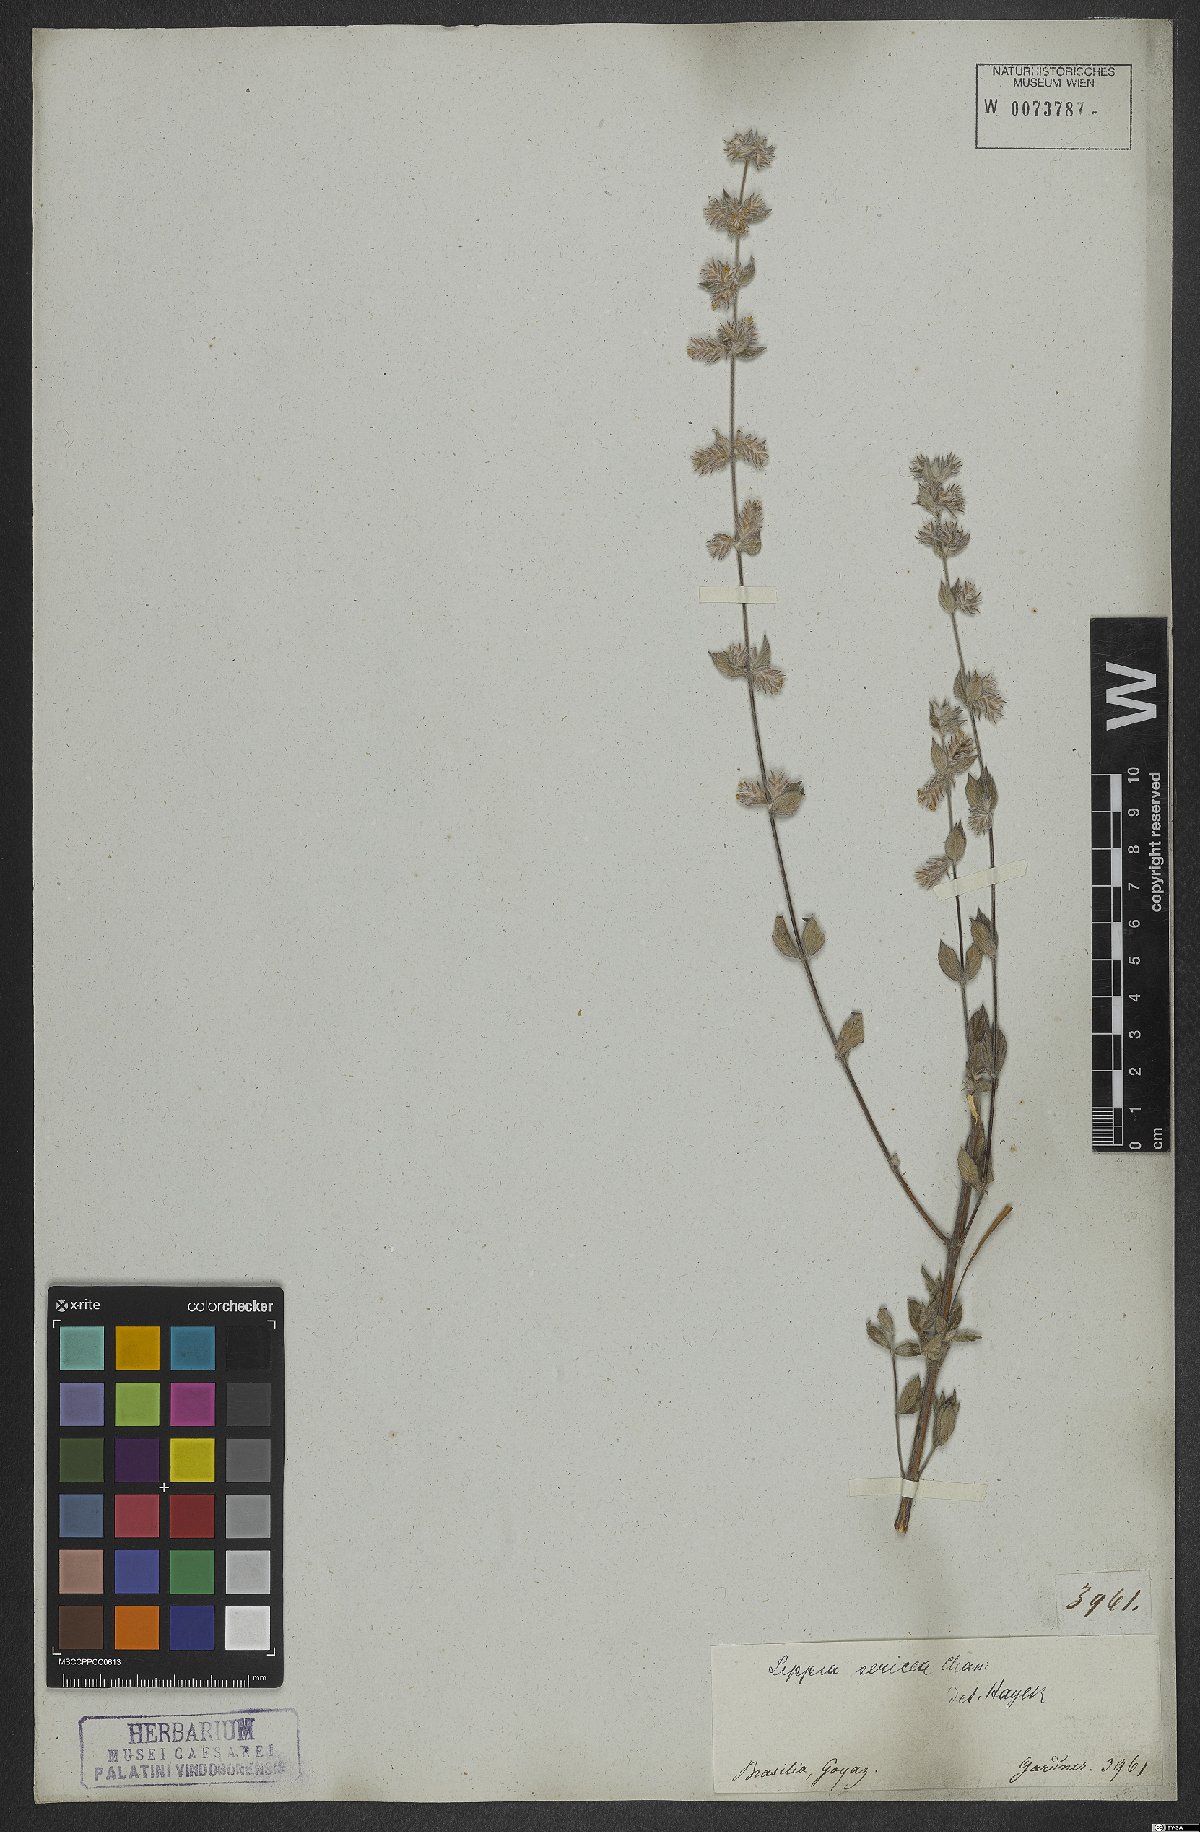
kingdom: Plantae
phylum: Tracheophyta
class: Magnoliopsida
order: Lamiales
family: Verbenaceae
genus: Lippia
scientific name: Lippia sericea
